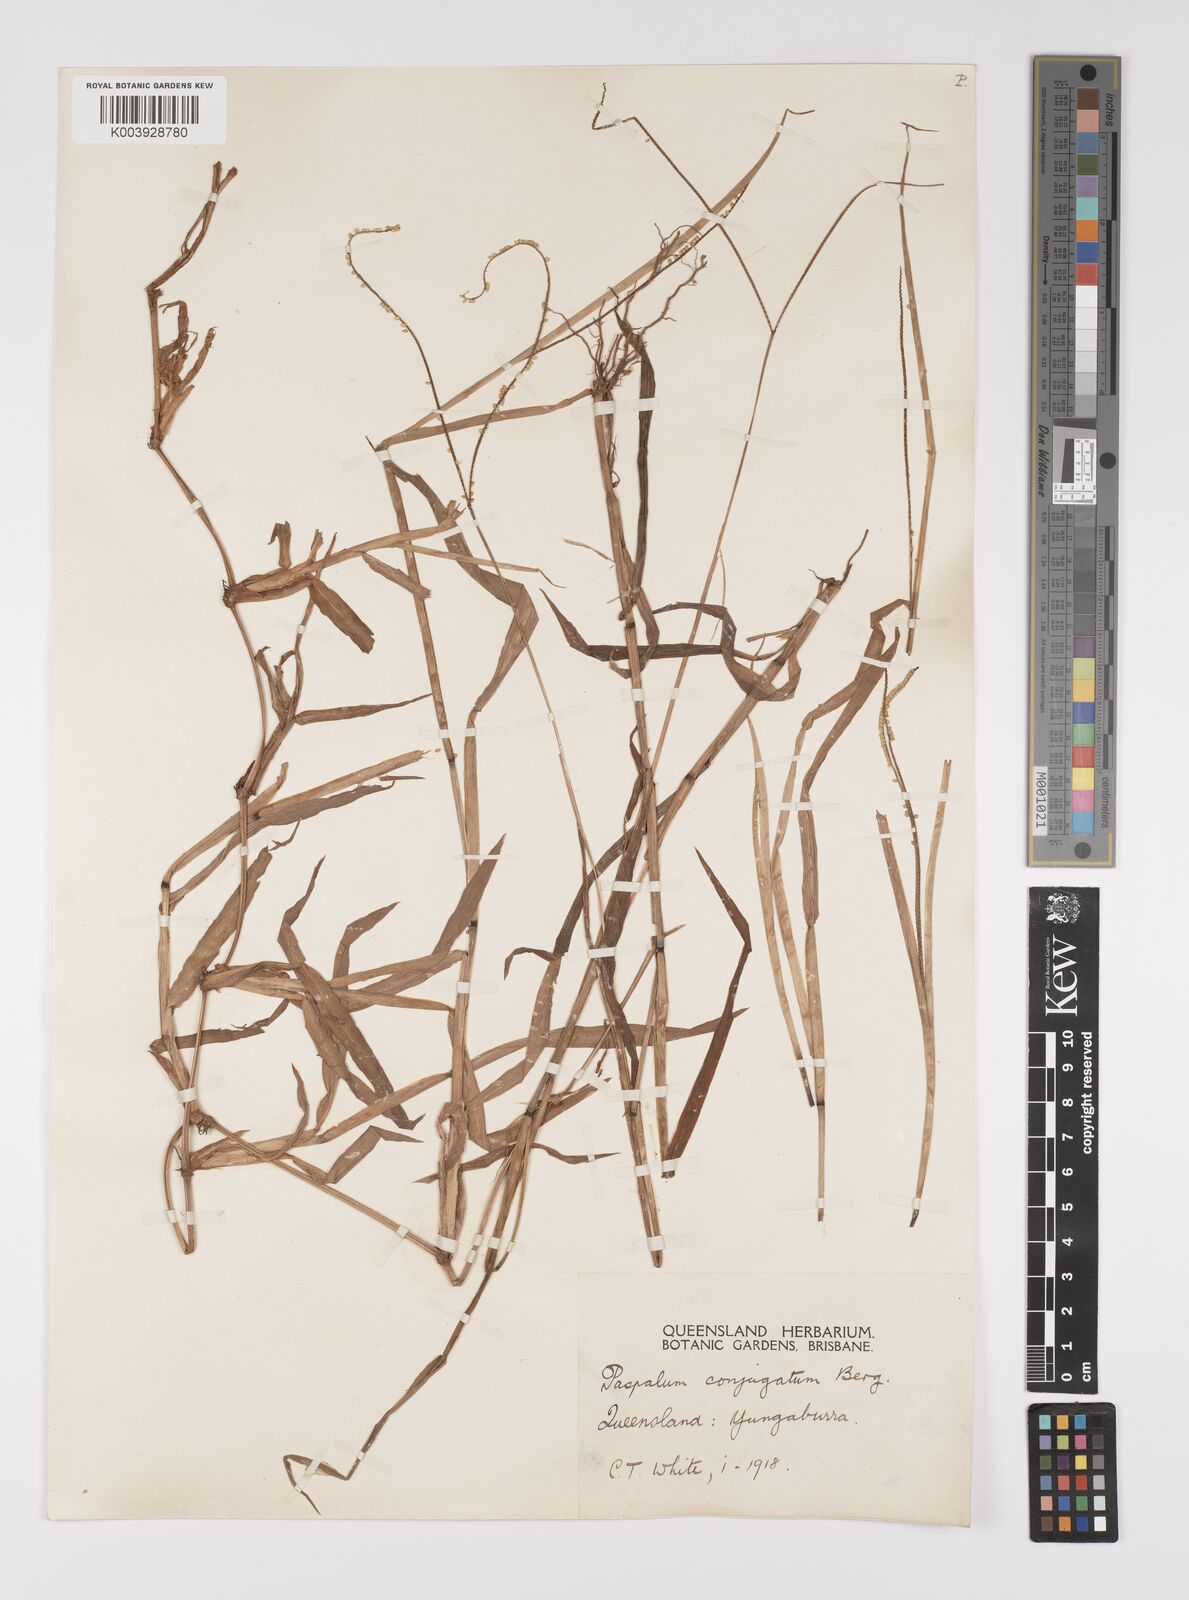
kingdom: Plantae
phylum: Tracheophyta
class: Liliopsida
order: Poales
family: Poaceae
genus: Paspalum
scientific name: Paspalum conjugatum
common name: Hilograss
